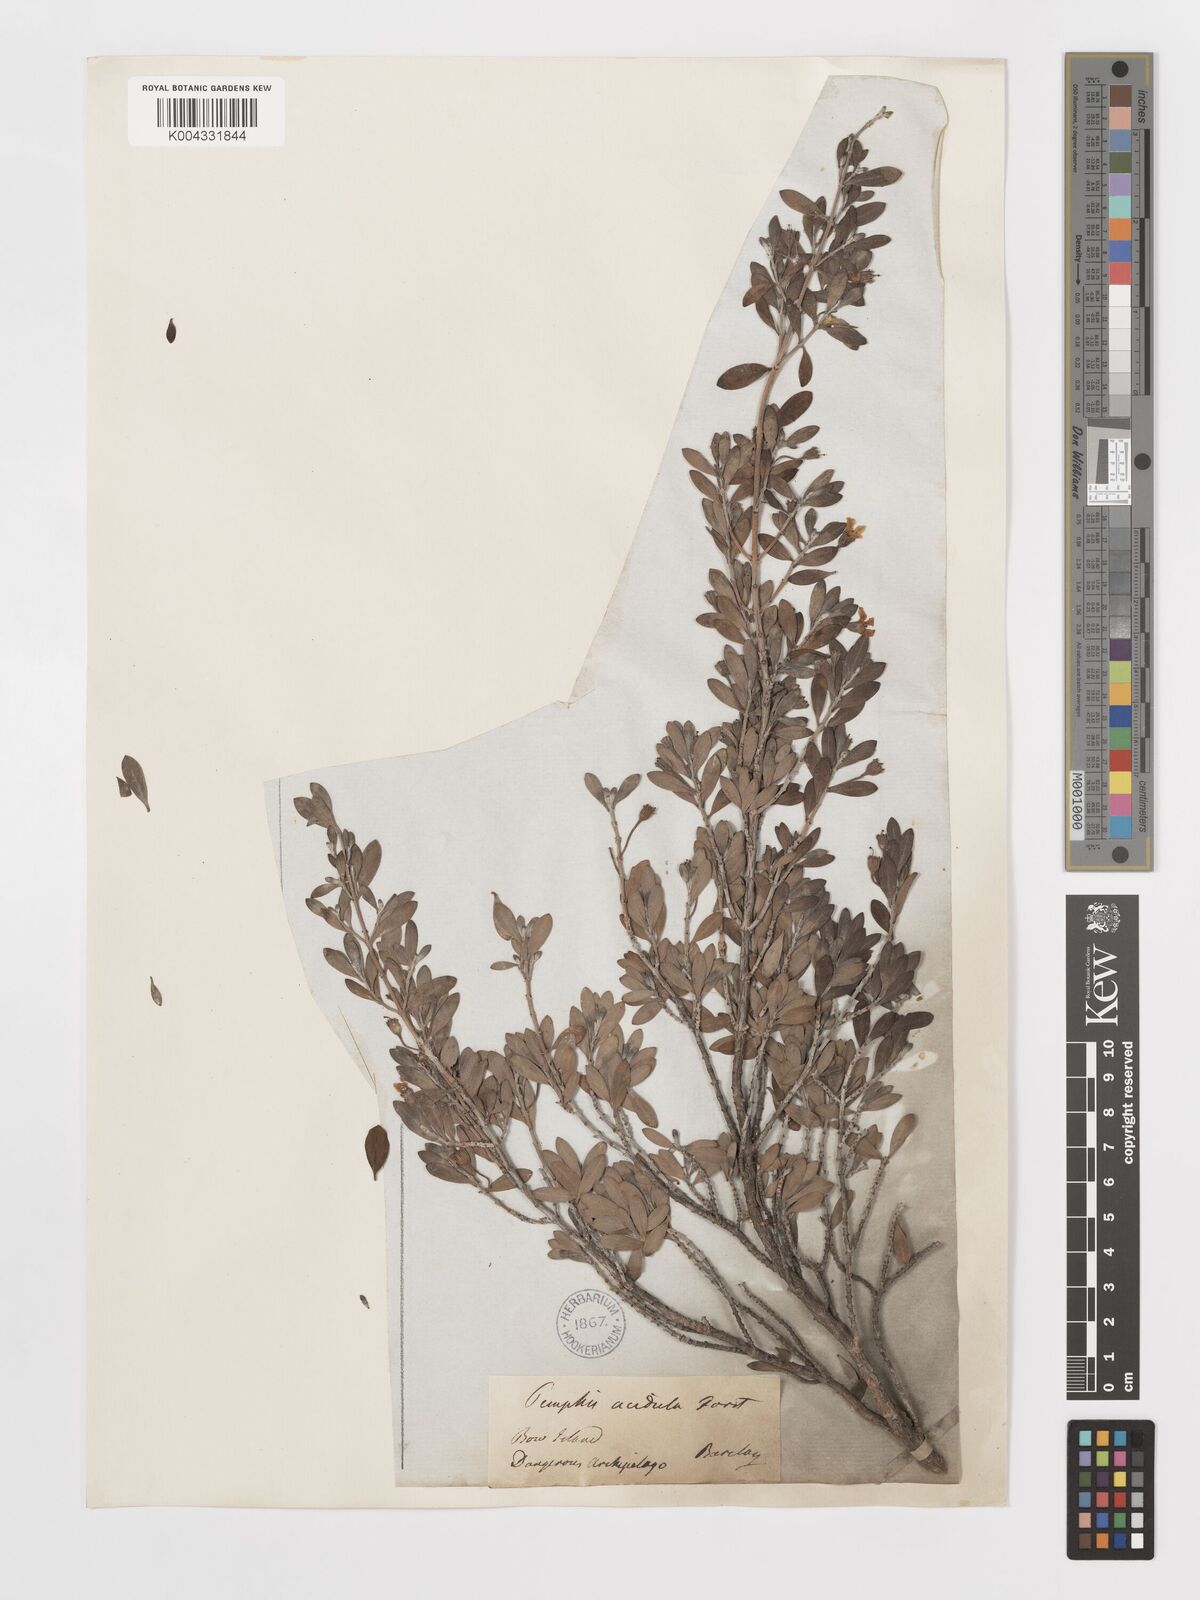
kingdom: Plantae
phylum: Tracheophyta
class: Magnoliopsida
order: Myrtales
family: Lythraceae
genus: Pemphis
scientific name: Pemphis acidula
